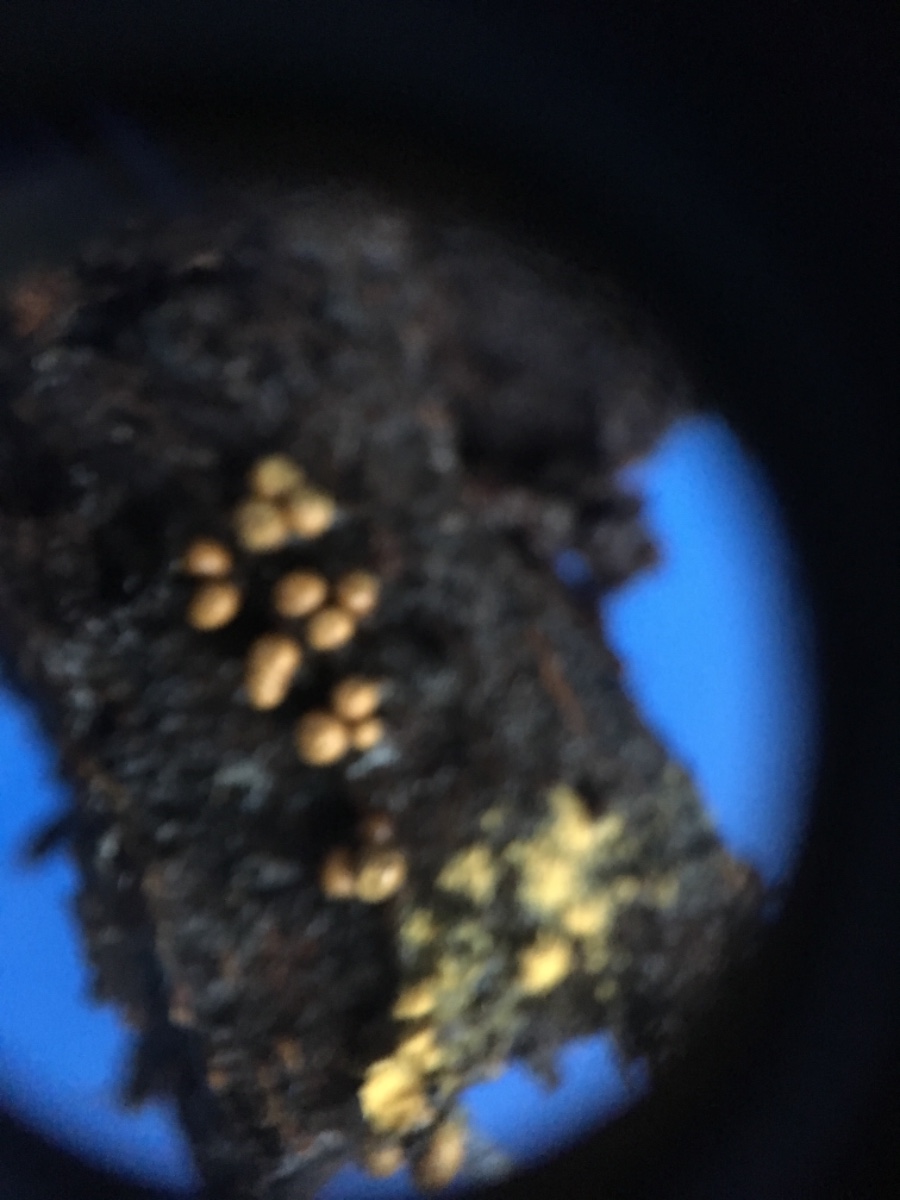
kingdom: Protozoa
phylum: Mycetozoa
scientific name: Mycetozoa
